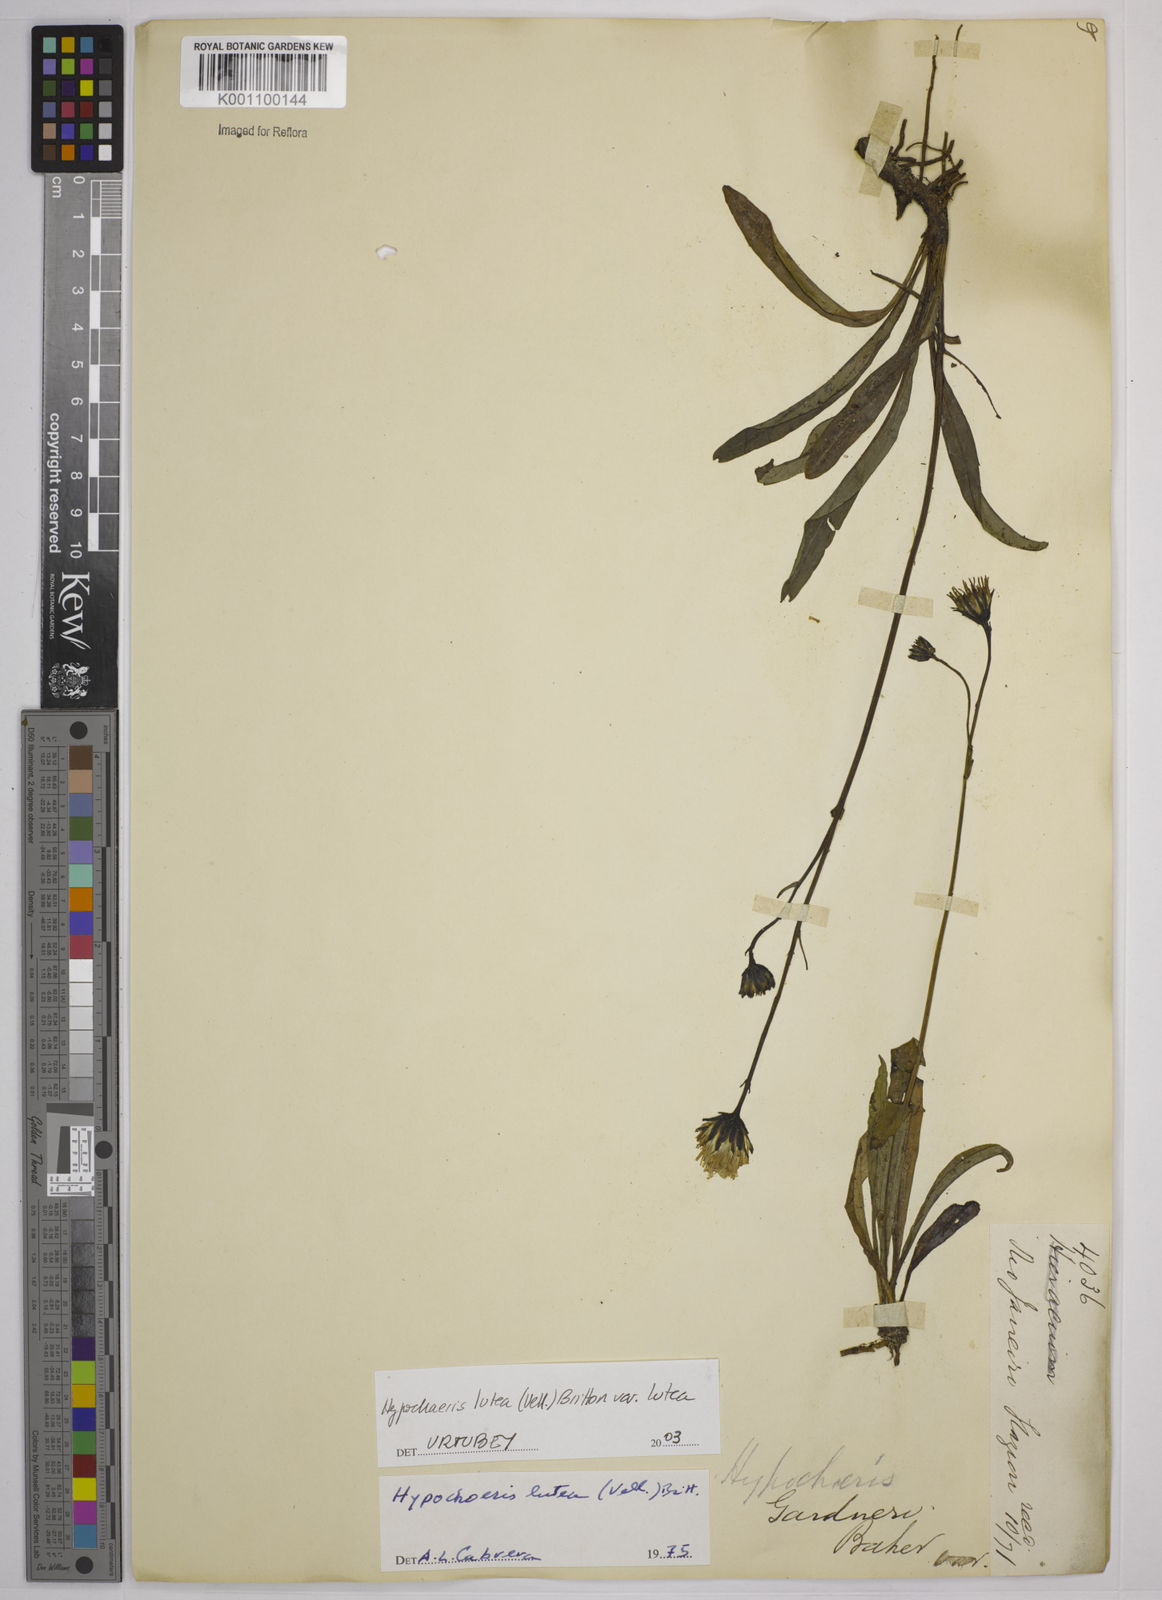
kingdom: Plantae
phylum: Tracheophyta
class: Magnoliopsida
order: Asterales
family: Asteraceae
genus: Hypochaeris
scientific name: Hypochaeris
